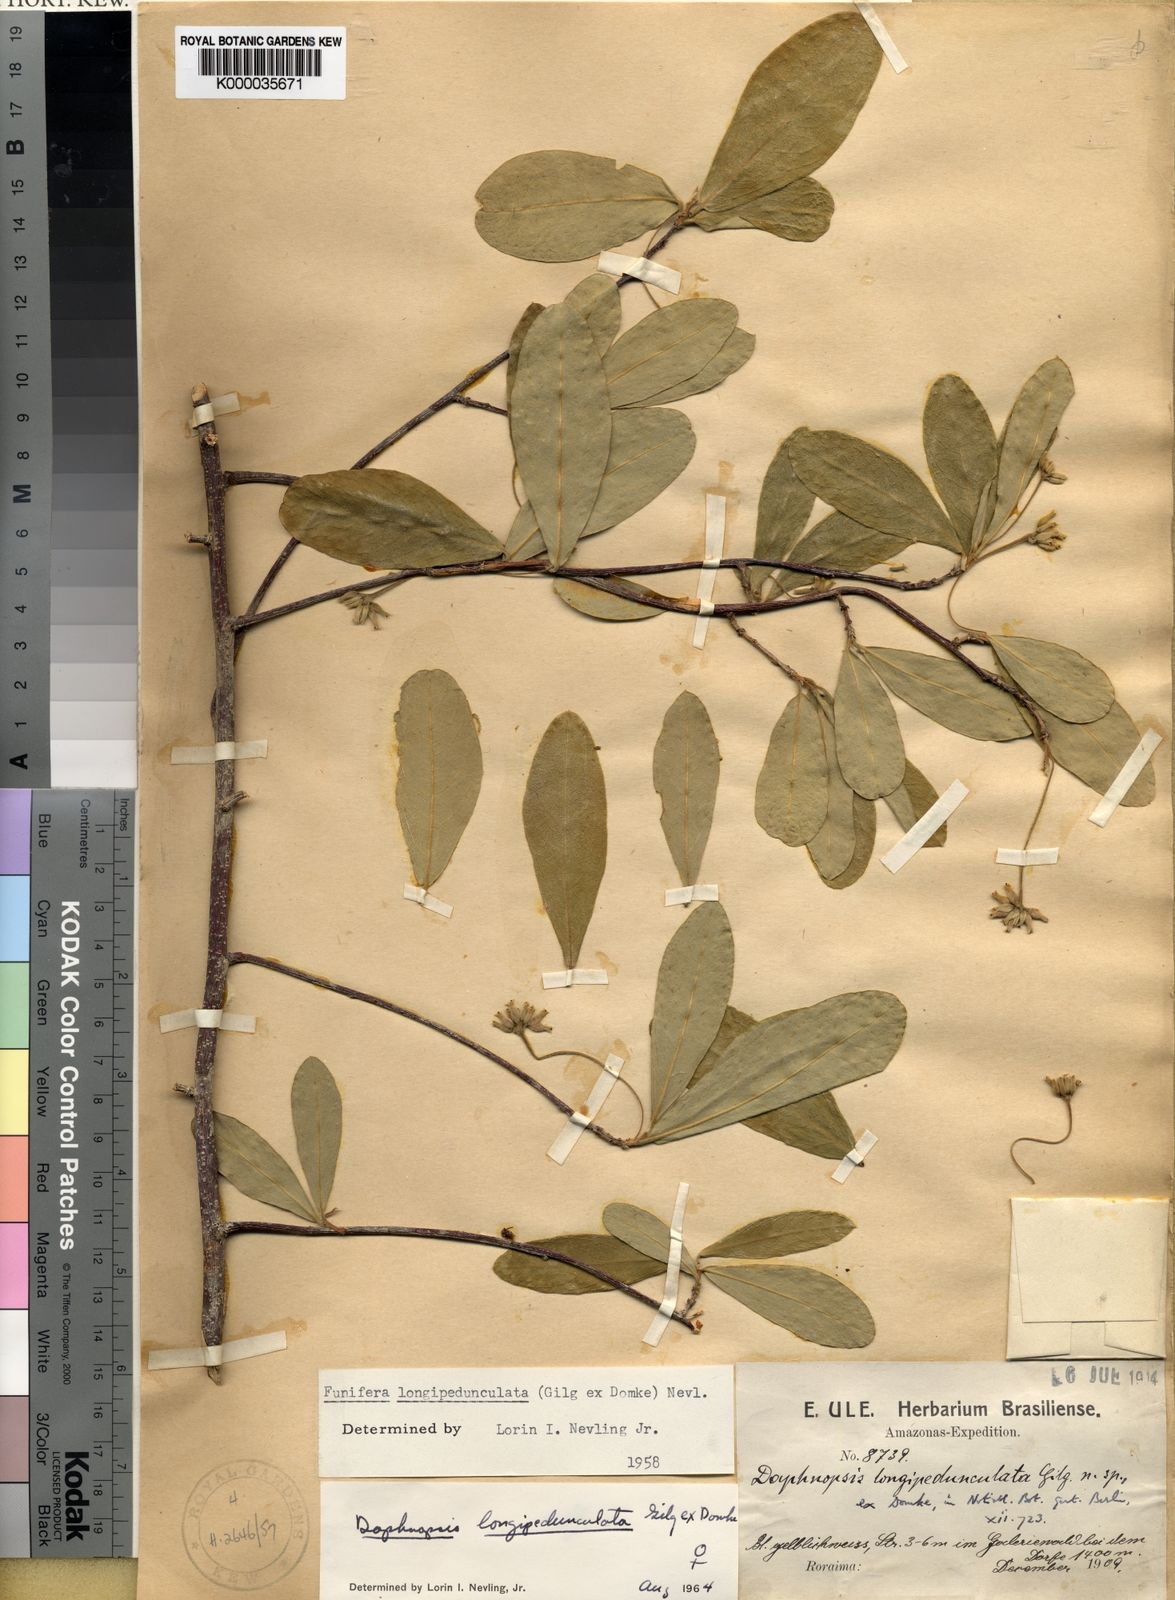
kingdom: Plantae
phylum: Tracheophyta
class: Magnoliopsida
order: Malvales
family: Thymelaeaceae
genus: Daphnopsis
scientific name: Daphnopsis longipedunculata
